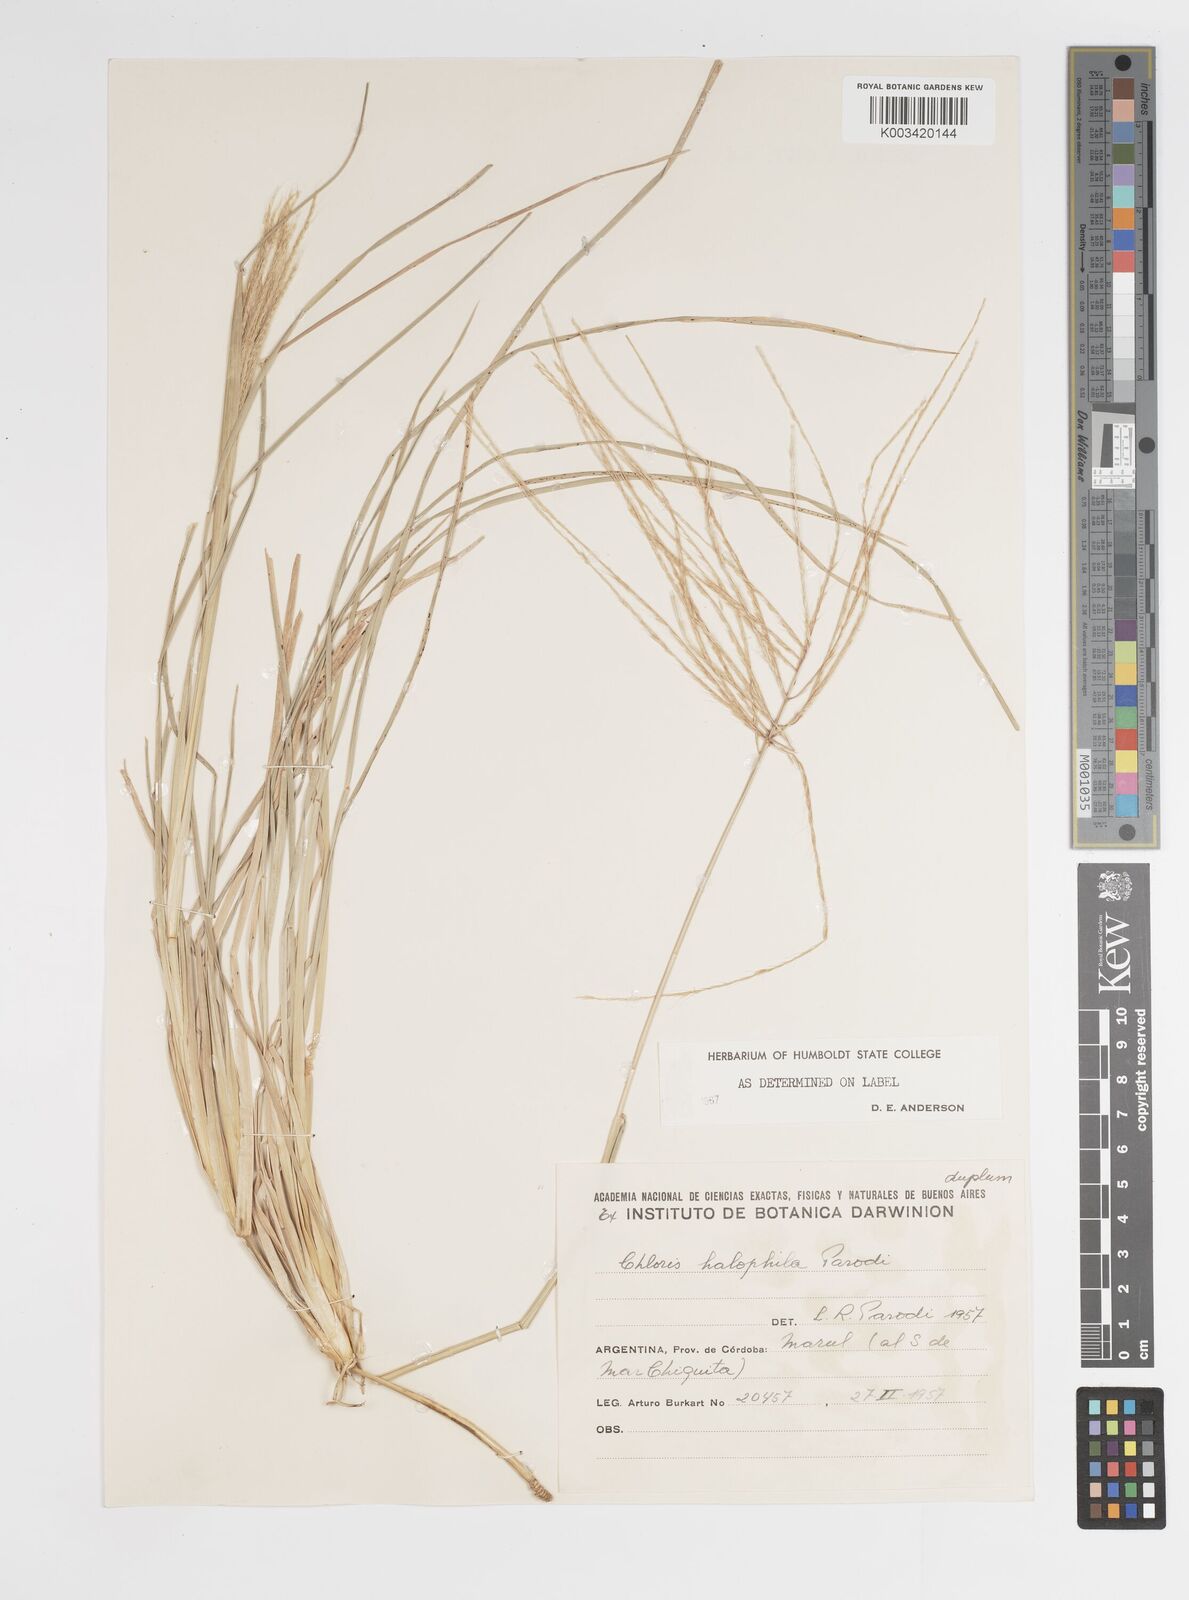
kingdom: Plantae
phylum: Tracheophyta
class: Liliopsida
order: Poales
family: Poaceae
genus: Chloris
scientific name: Chloris halophila
